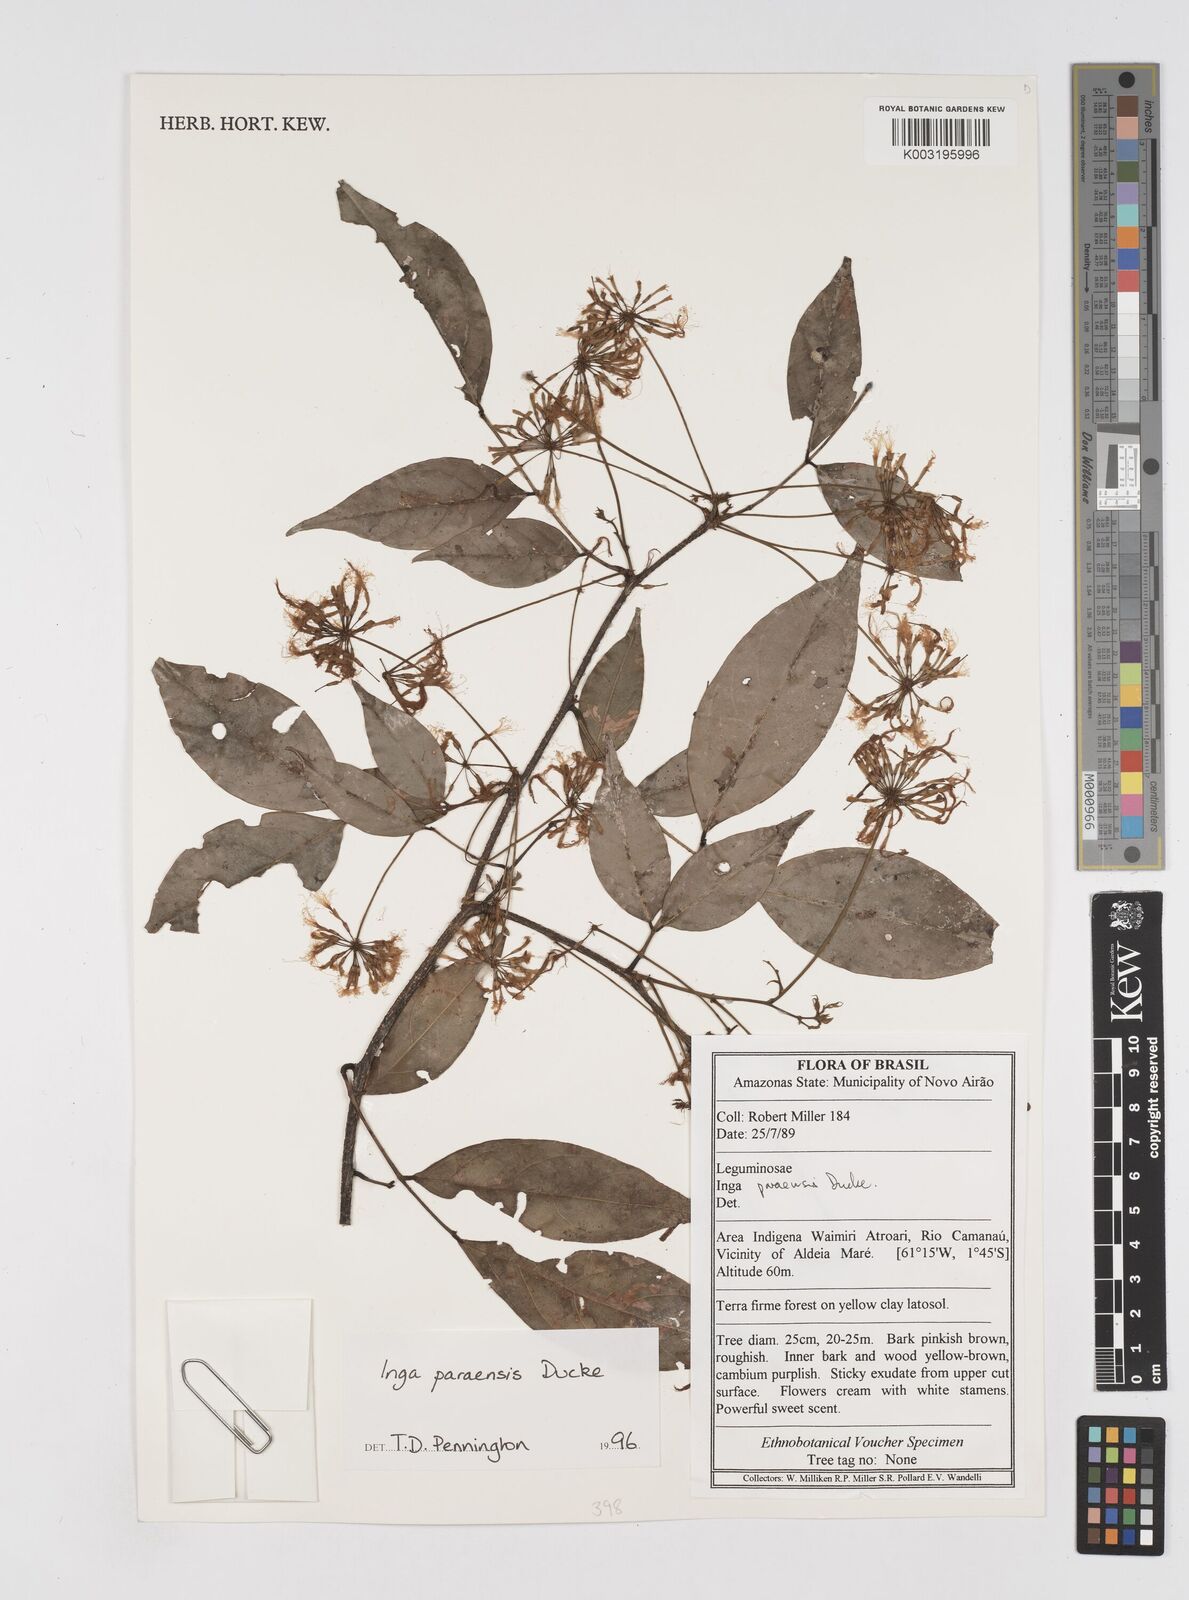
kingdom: Plantae
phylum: Tracheophyta
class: Magnoliopsida
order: Fabales
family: Fabaceae
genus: Inga
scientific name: Inga paraensis
